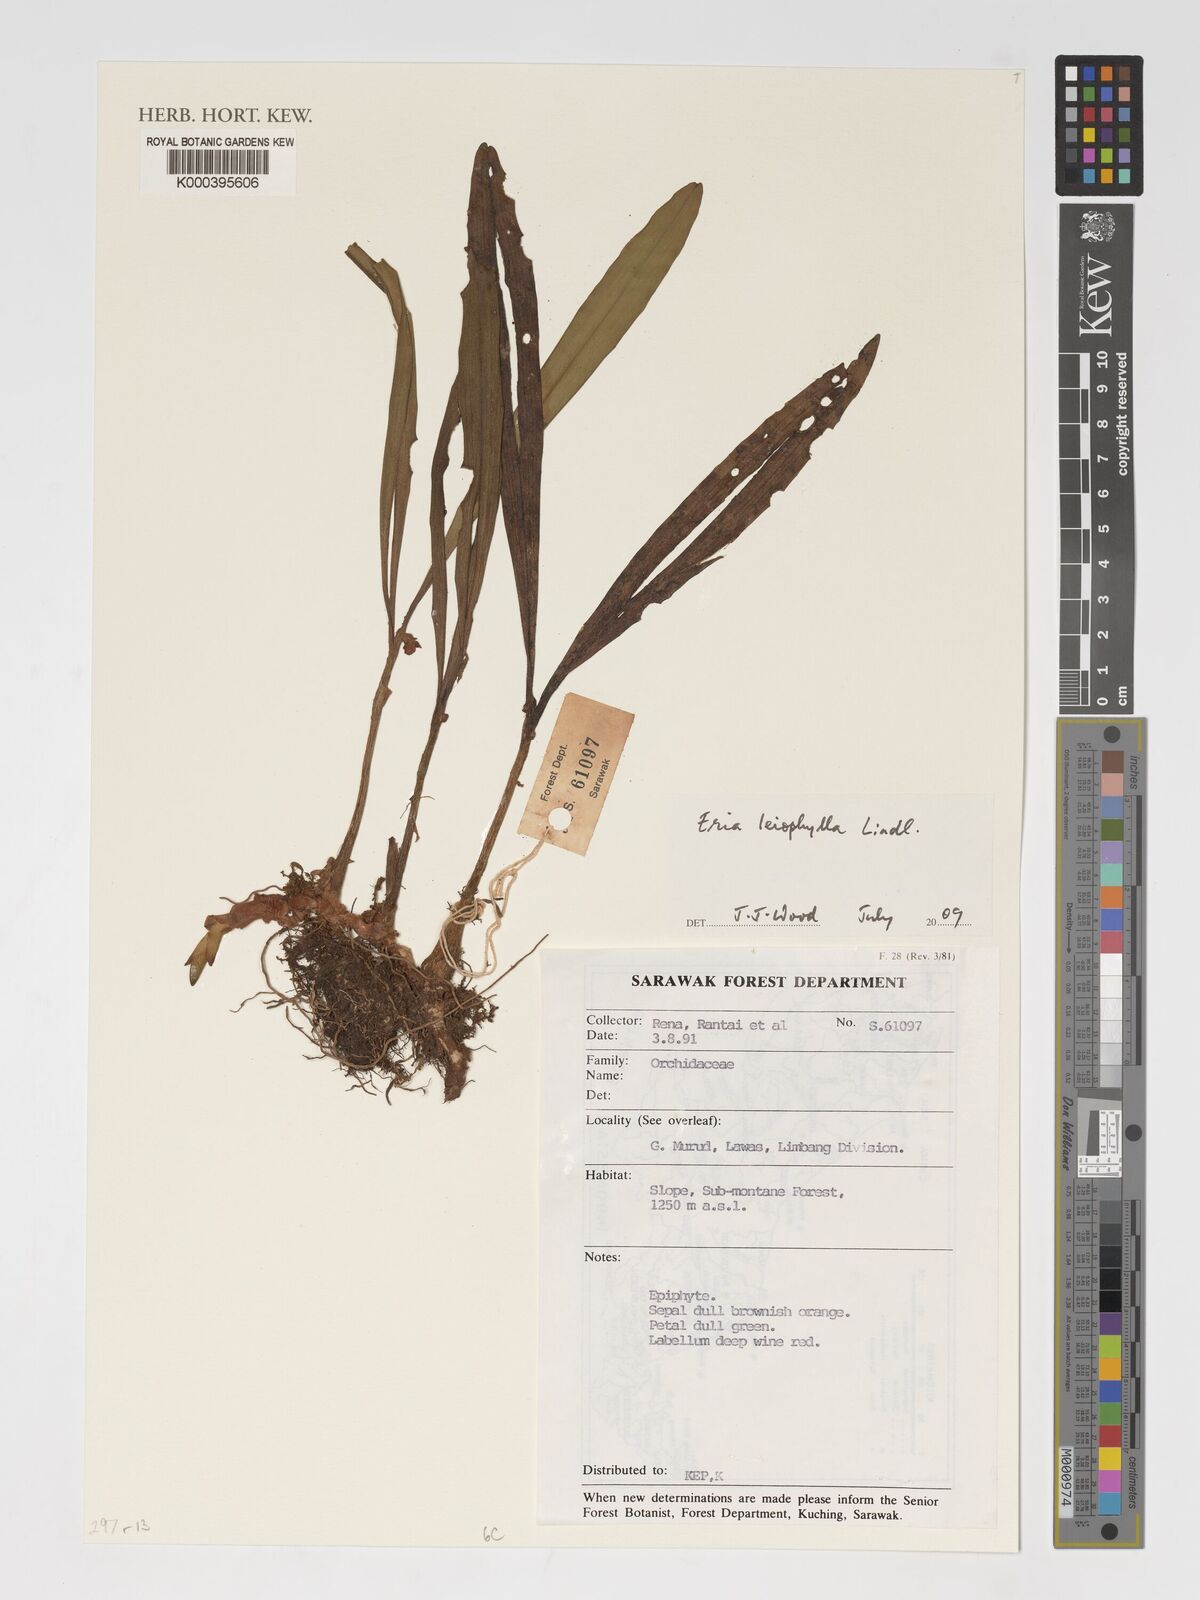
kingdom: Plantae
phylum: Tracheophyta
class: Liliopsida
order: Asparagales
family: Orchidaceae
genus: Strongyleria
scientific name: Strongyleria leiophylla
